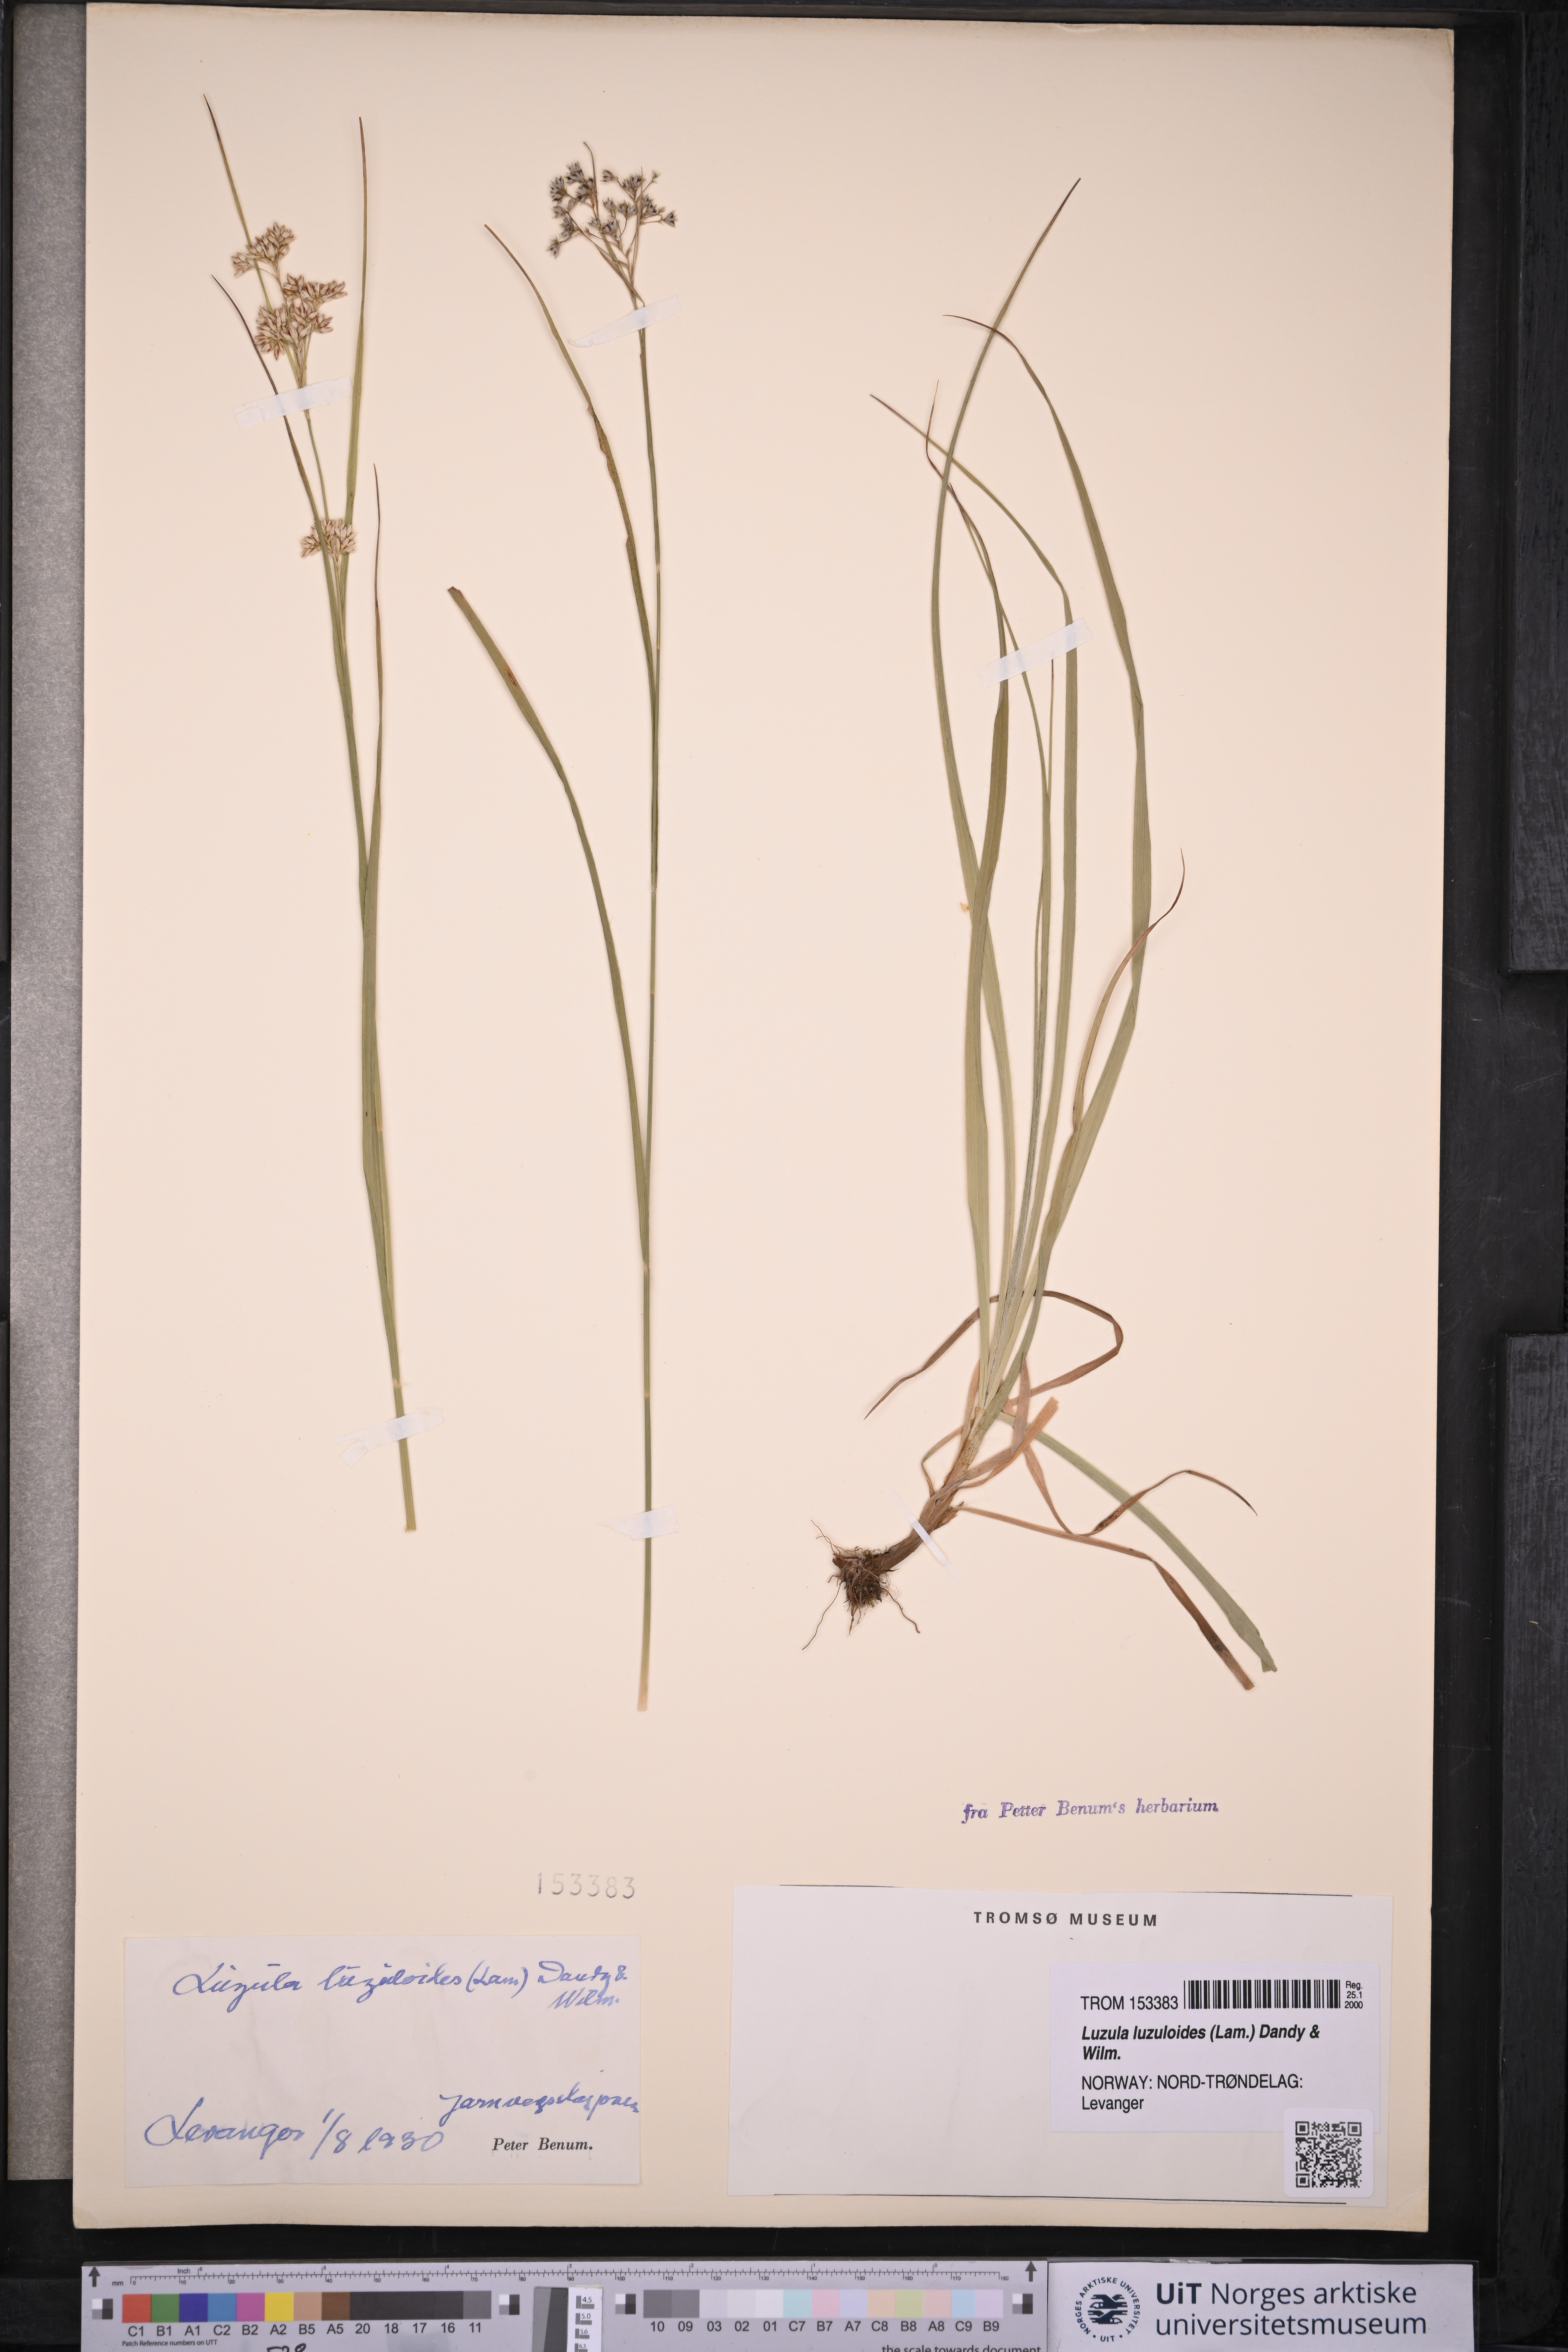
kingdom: Plantae
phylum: Tracheophyta
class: Liliopsida
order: Poales
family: Juncaceae
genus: Luzula
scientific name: Luzula luzuloides
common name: White wood-rush
